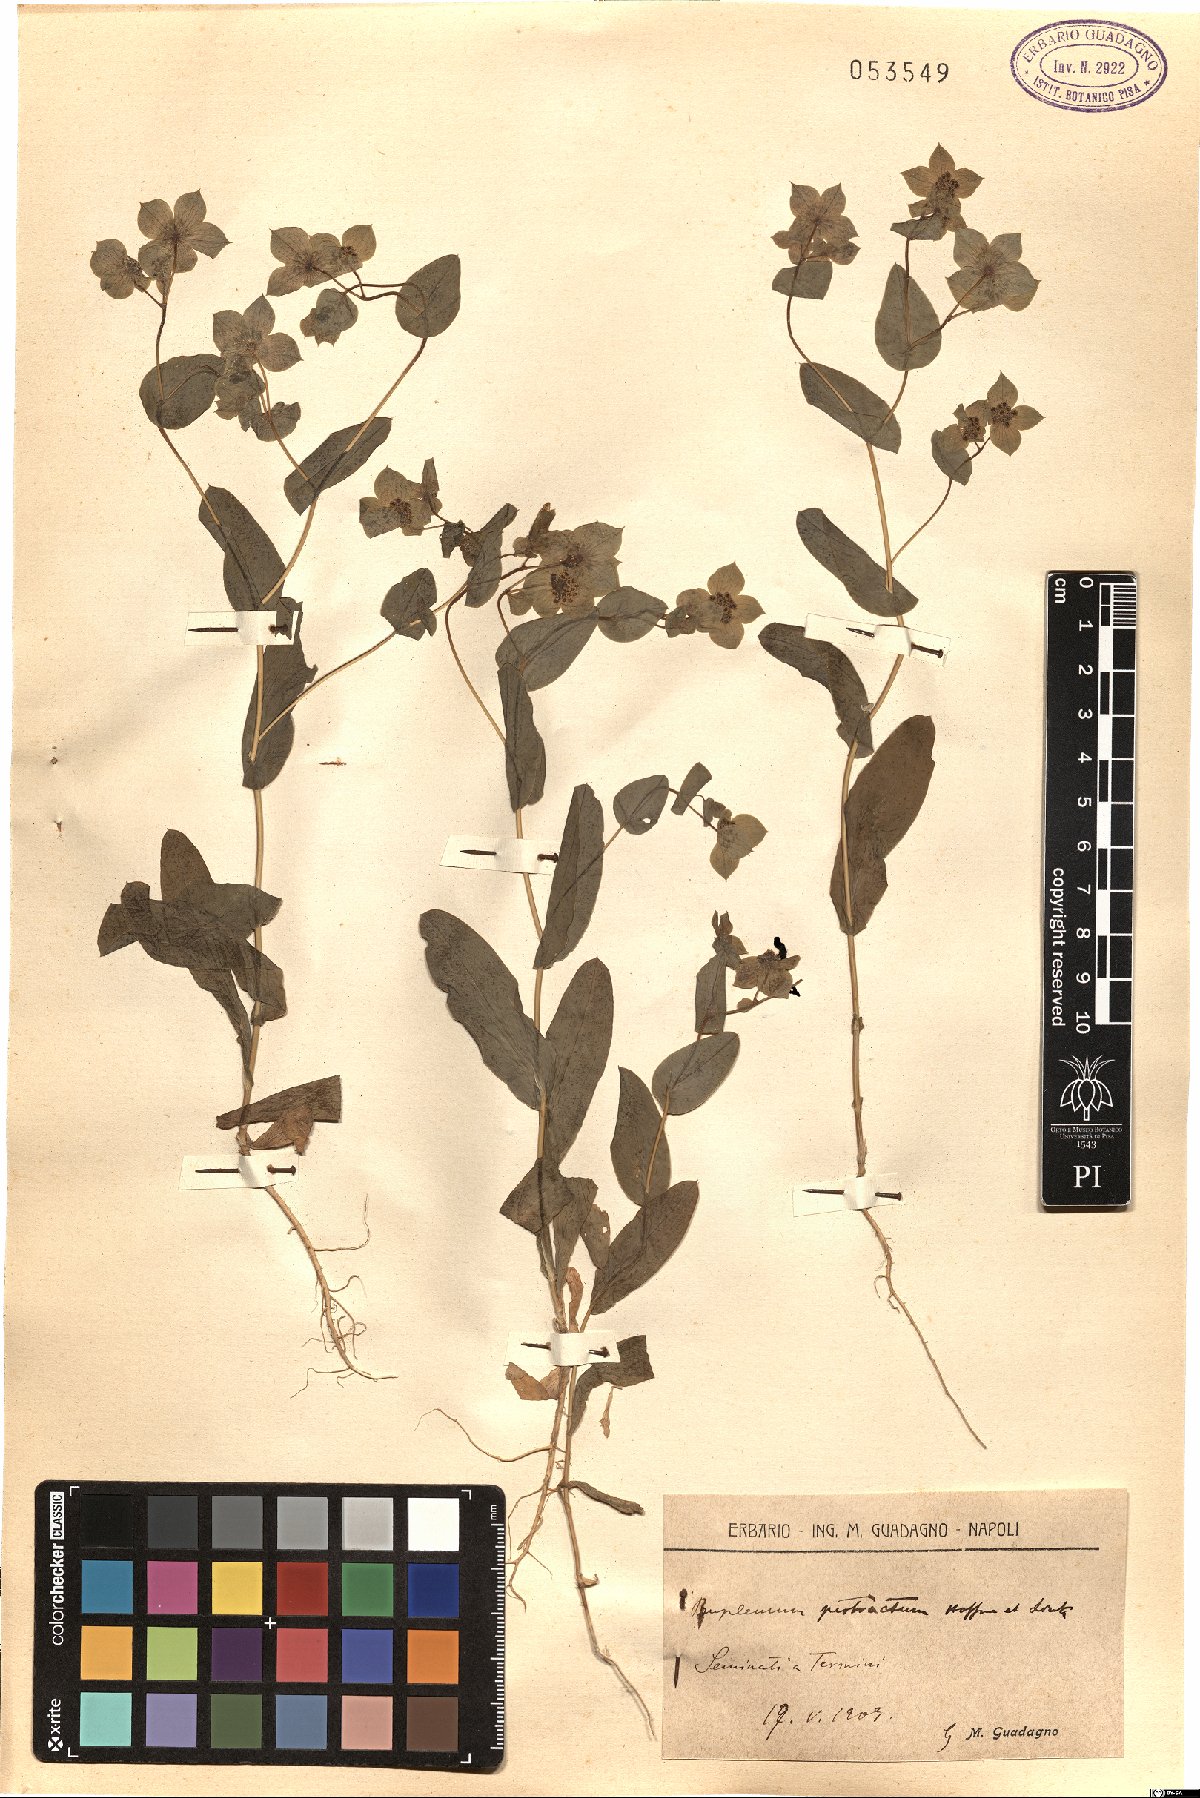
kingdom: Plantae
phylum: Tracheophyta
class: Magnoliopsida
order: Apiales
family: Apiaceae
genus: Bupleurum
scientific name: Bupleurum subovatum
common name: False thorow-wax
